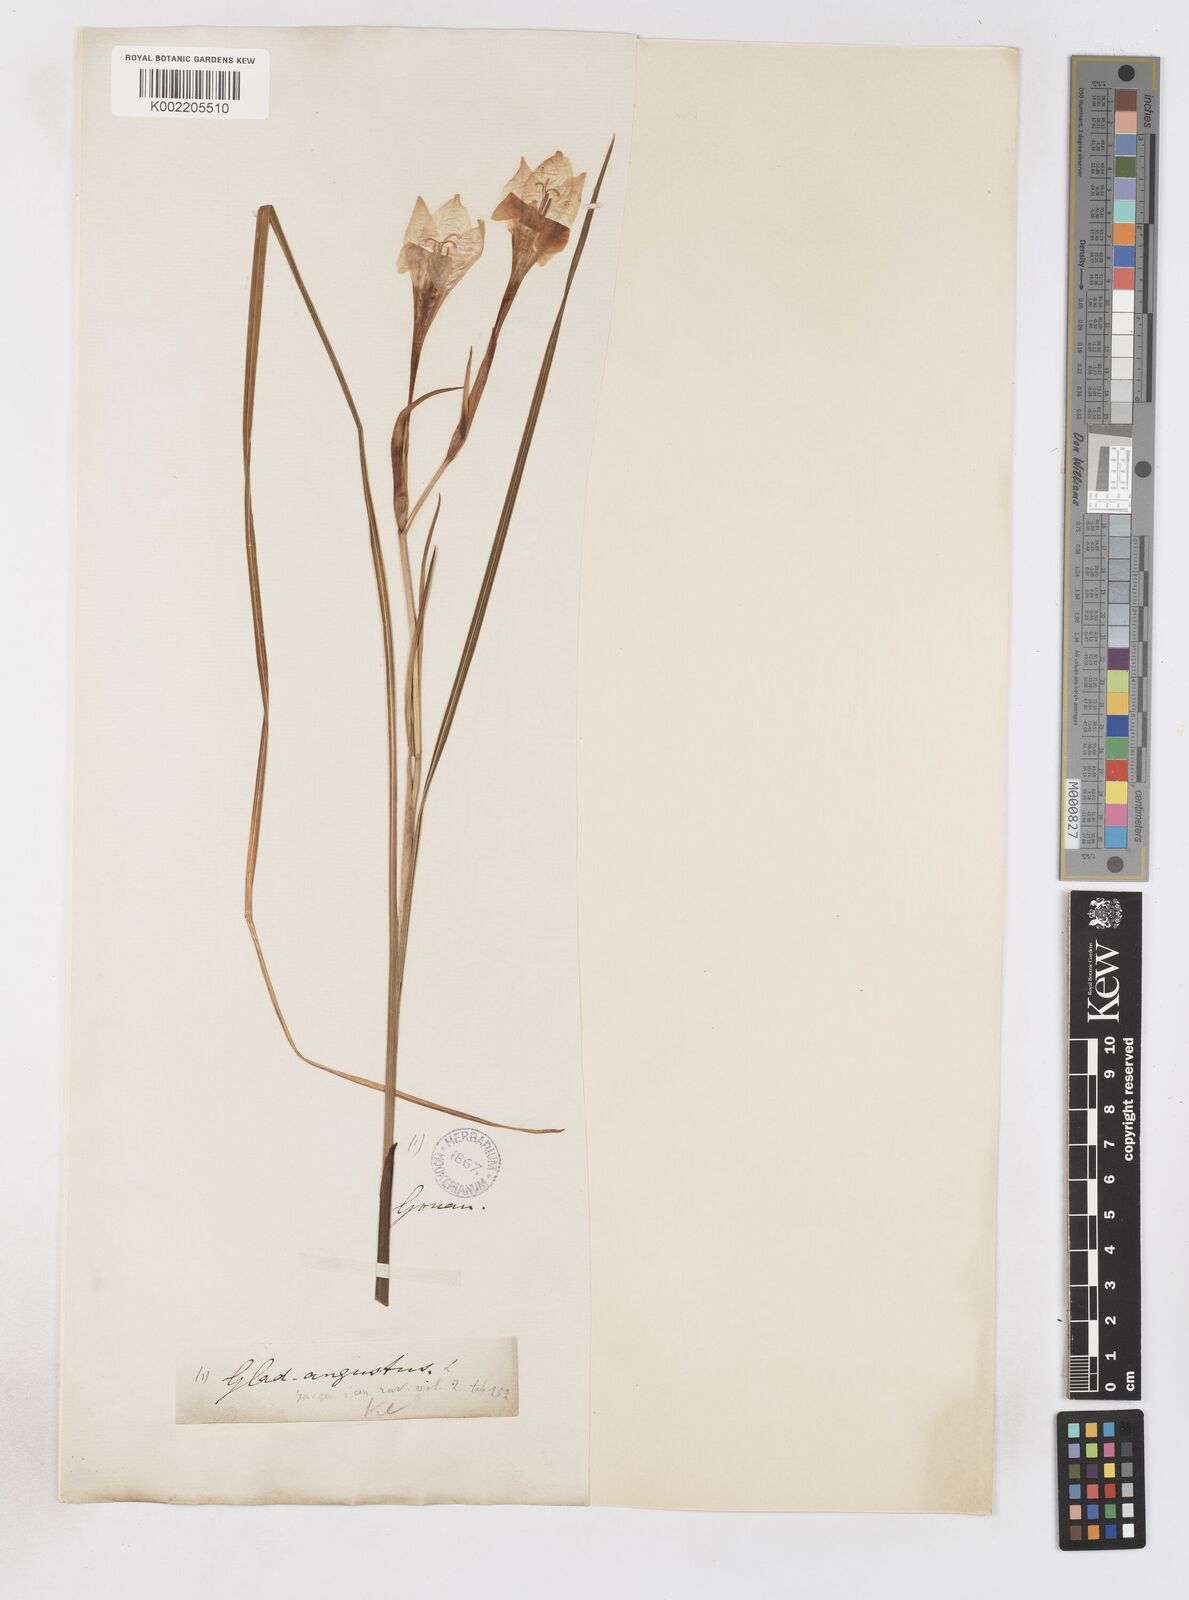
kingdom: Plantae
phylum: Tracheophyta
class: Liliopsida
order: Asparagales
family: Iridaceae
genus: Gladiolus
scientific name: Gladiolus angustus
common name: Painted-lady
